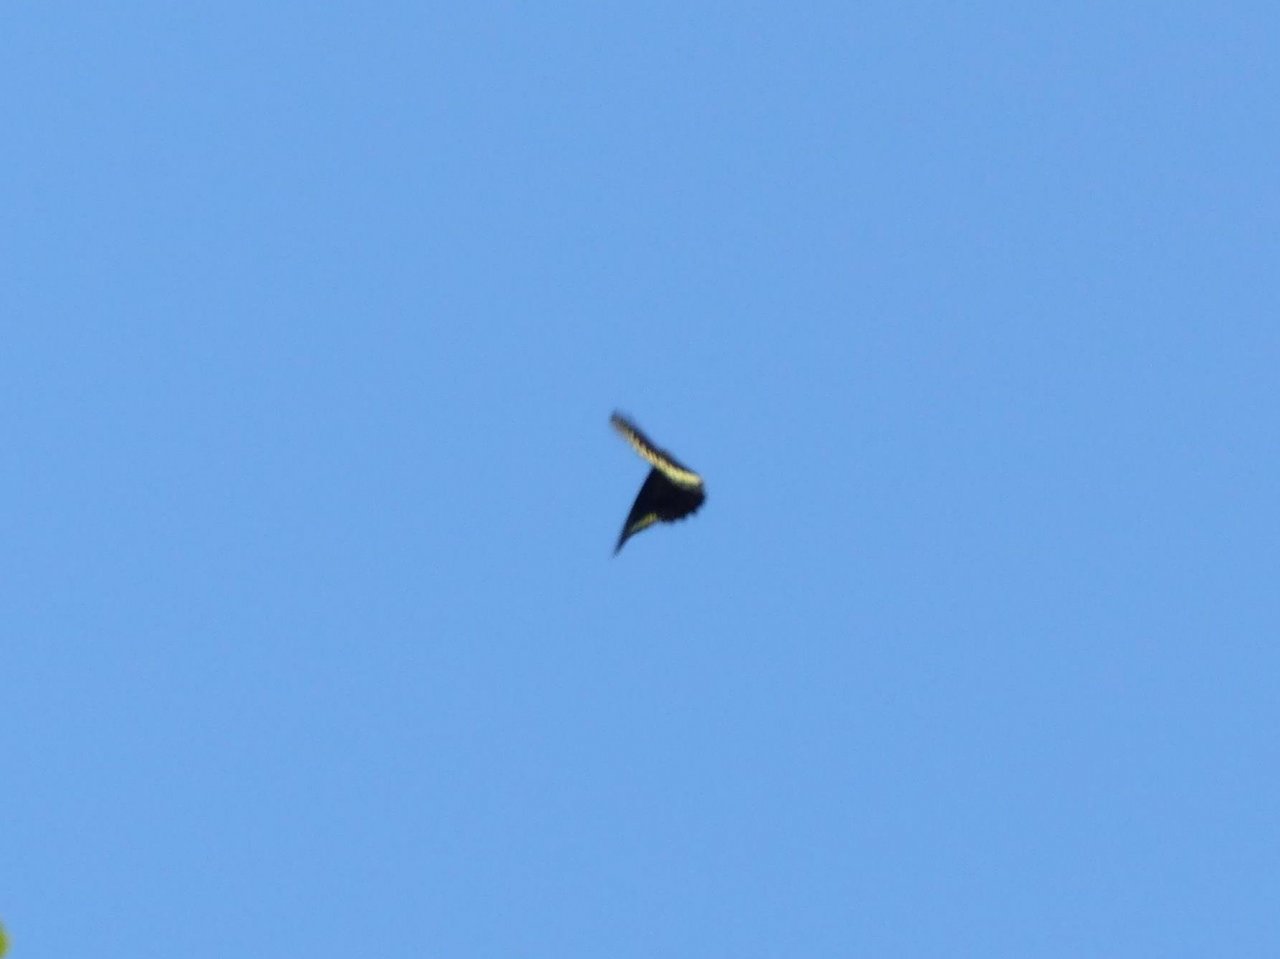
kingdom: Animalia
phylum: Arthropoda
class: Insecta
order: Lepidoptera
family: Papilionidae
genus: Battus
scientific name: Battus polydamas
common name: Polydamas Swallowtail
